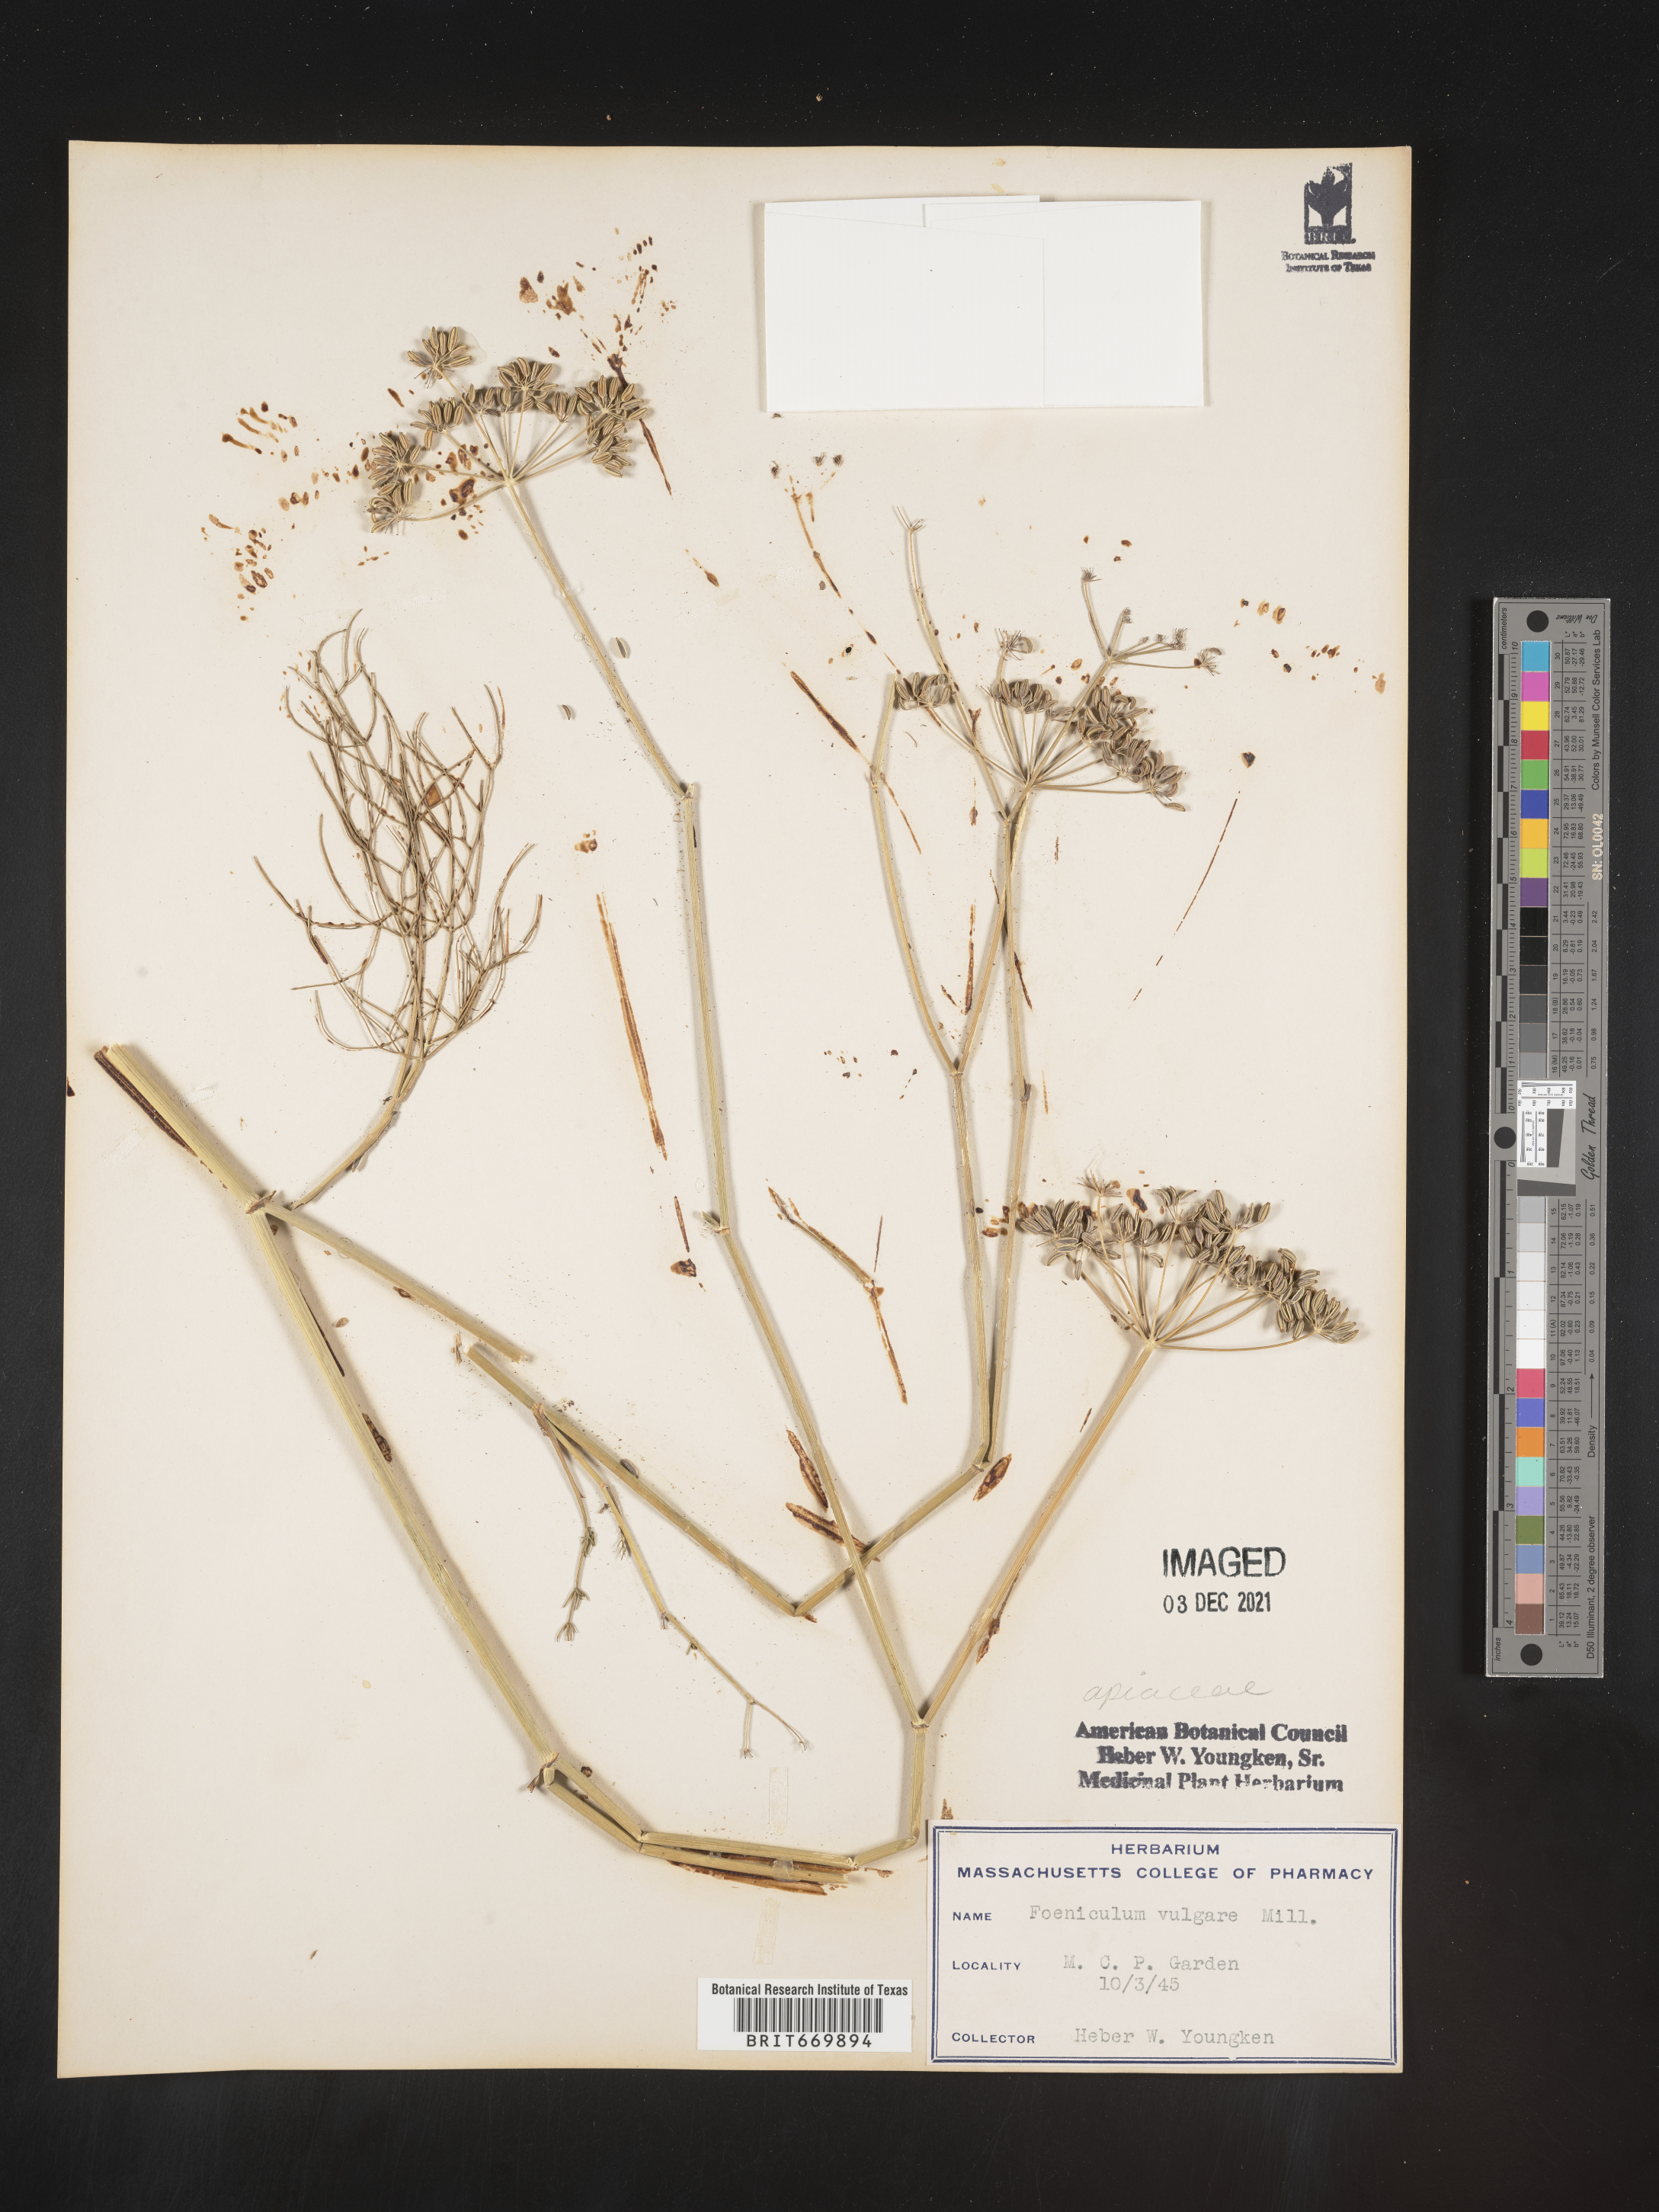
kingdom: Plantae
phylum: Tracheophyta
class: Magnoliopsida
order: Apiales
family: Apiaceae
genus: Foeniculum
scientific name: Foeniculum
